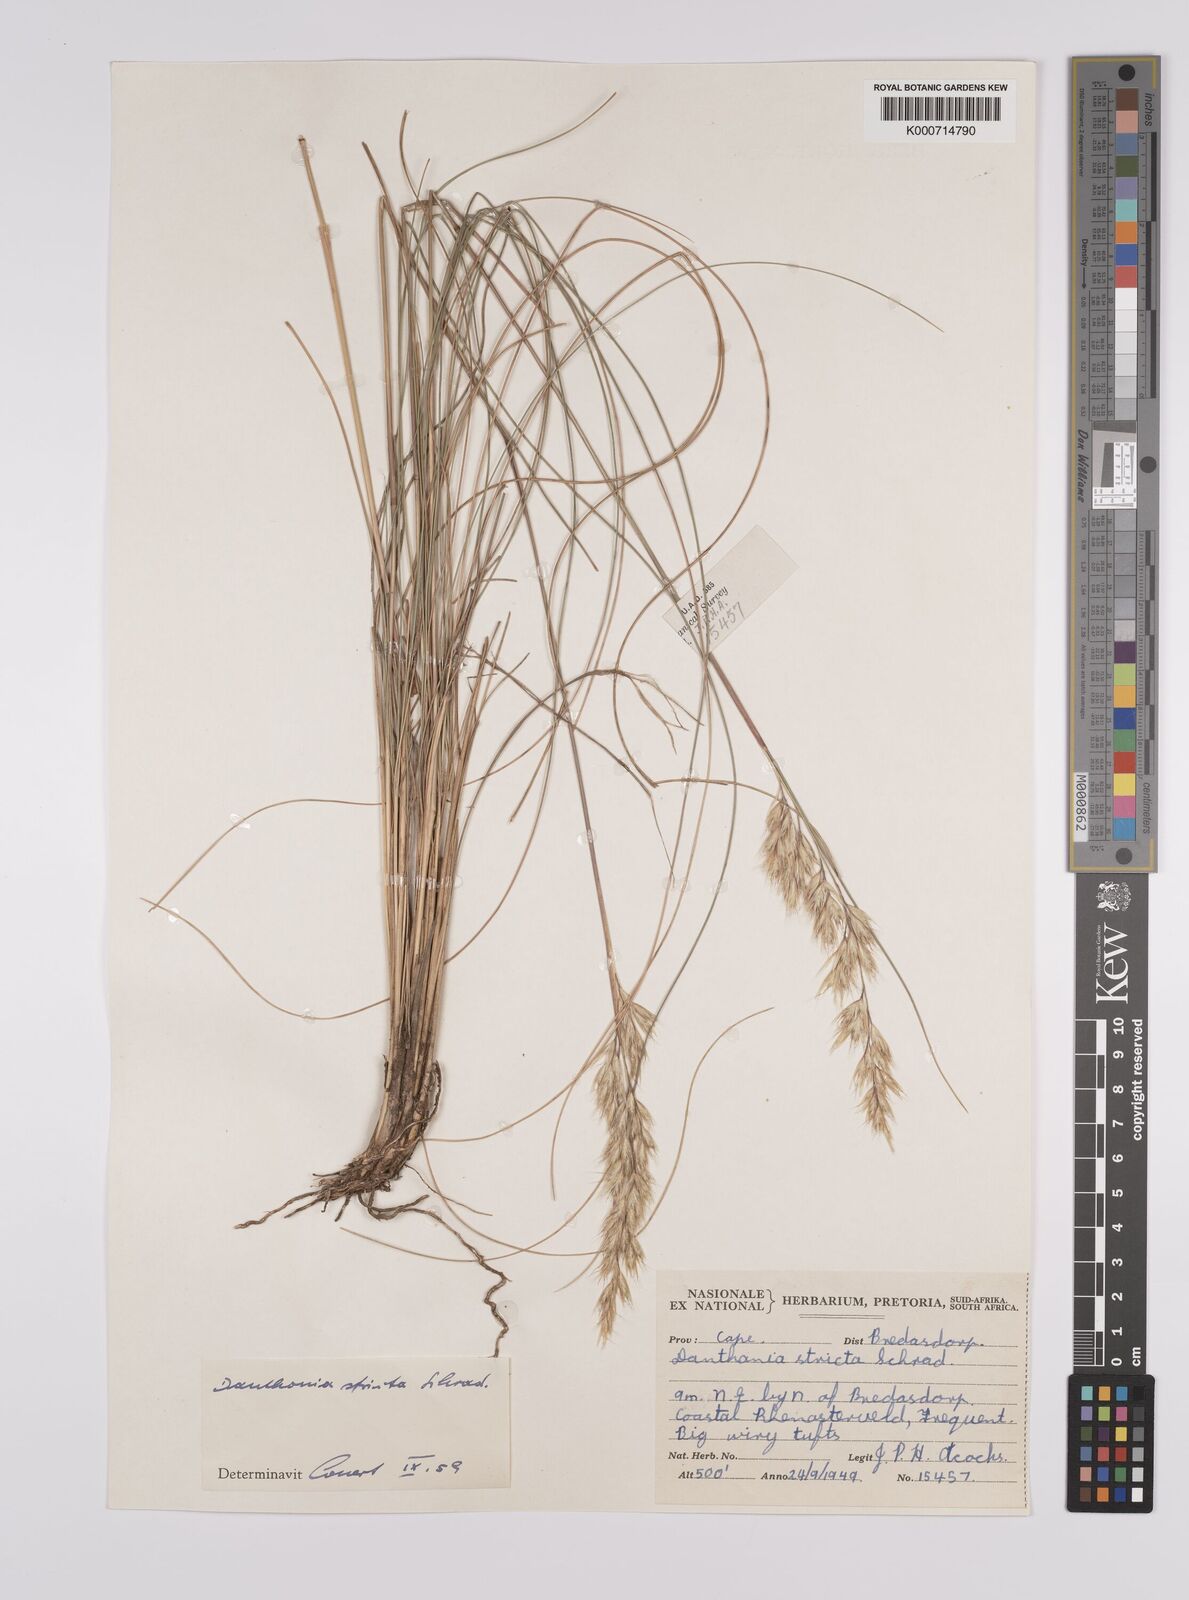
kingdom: Plantae
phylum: Tracheophyta
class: Liliopsida
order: Poales
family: Poaceae
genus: Rytidosperma
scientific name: Rytidosperma
